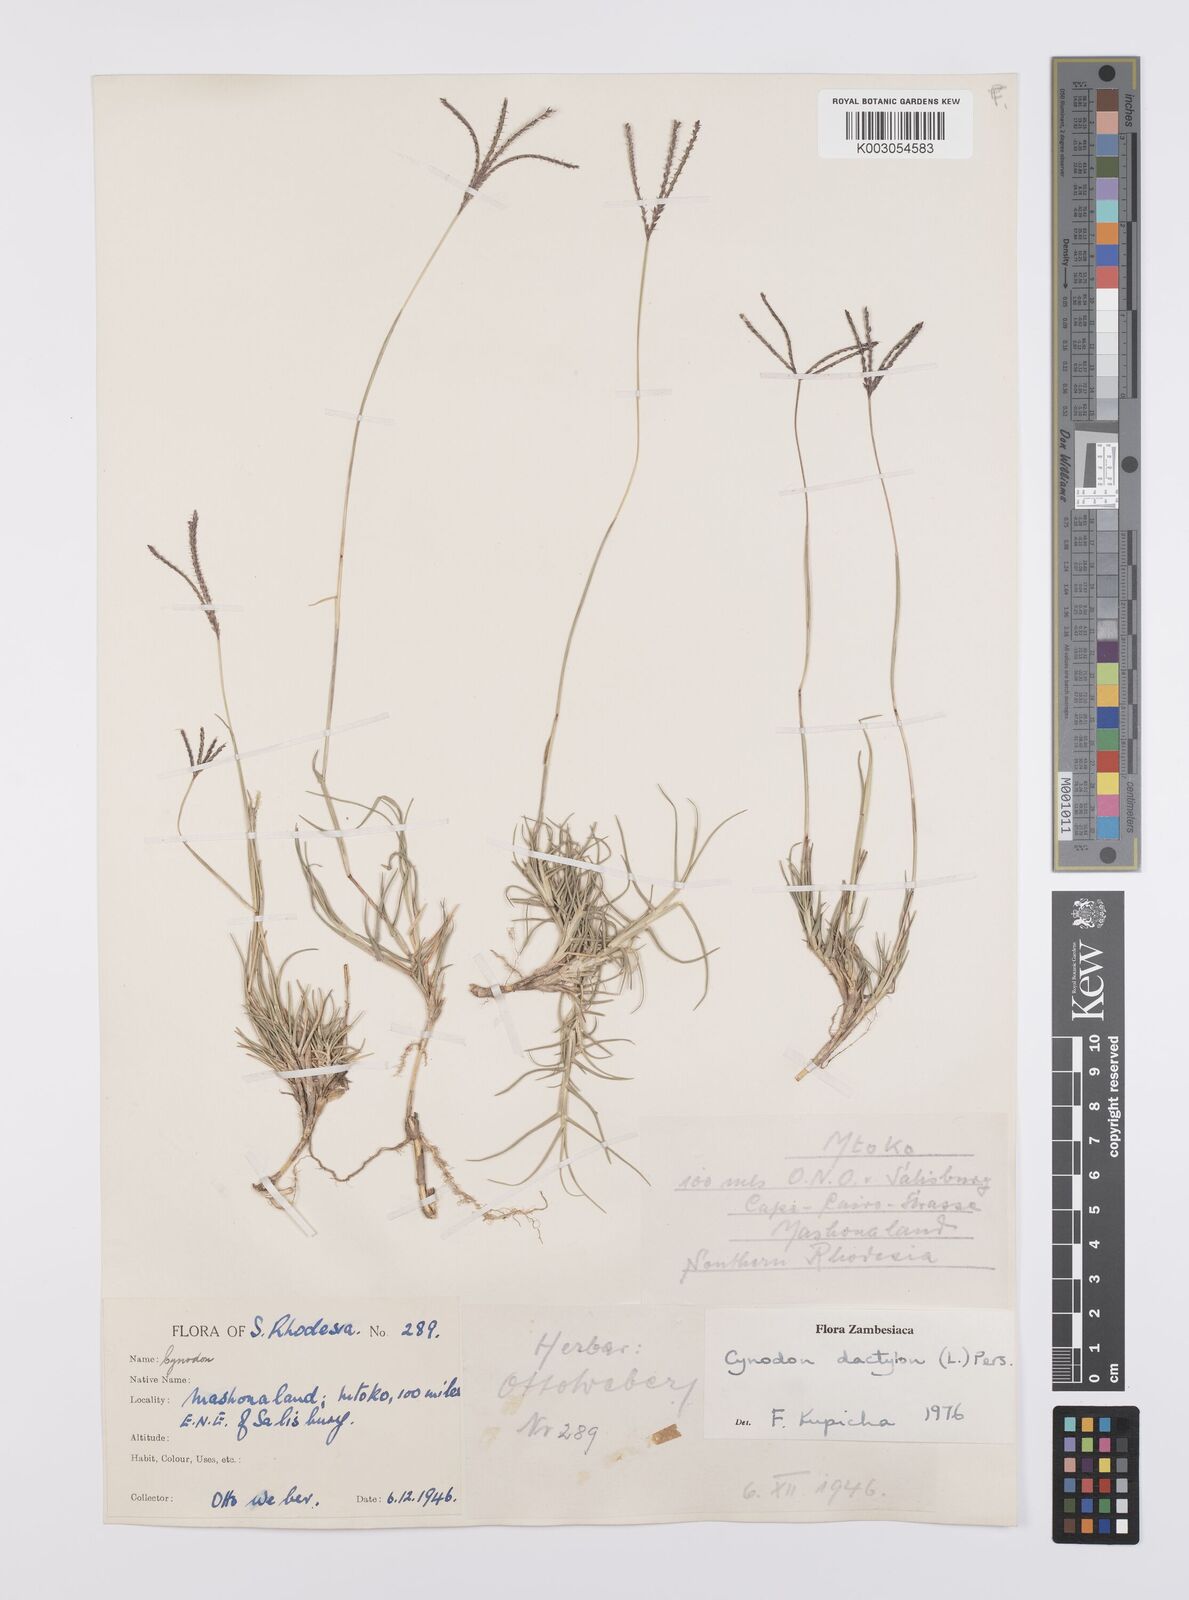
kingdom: Plantae
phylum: Tracheophyta
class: Liliopsida
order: Poales
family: Poaceae
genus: Cynodon
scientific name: Cynodon dactylon
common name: Bermuda grass
